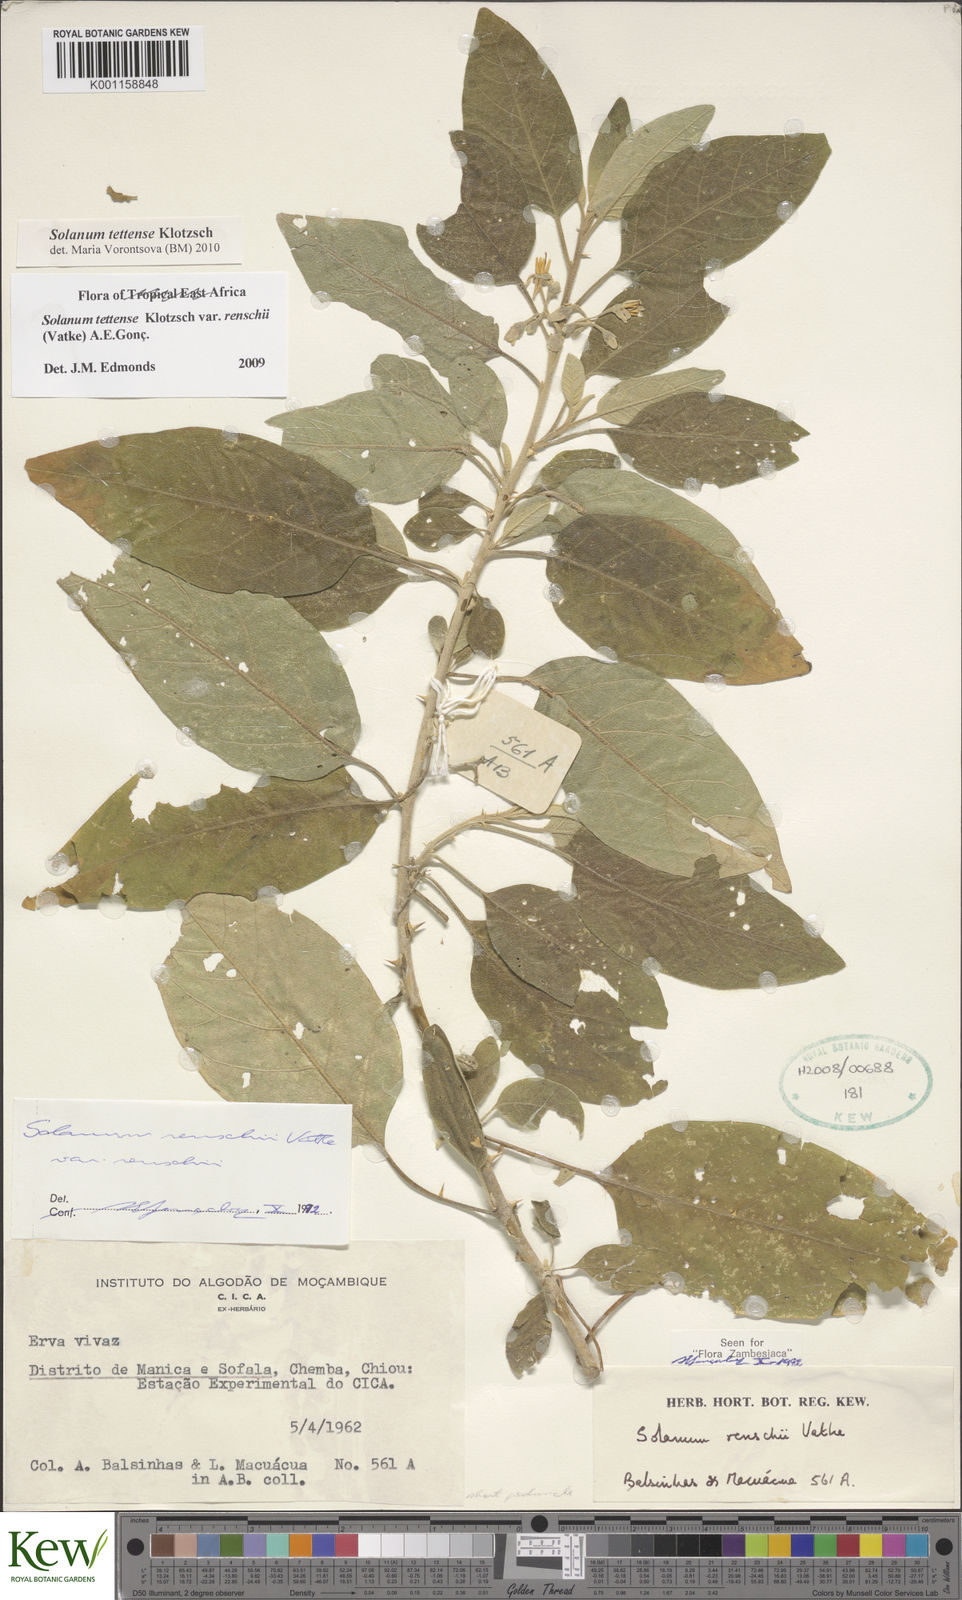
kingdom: Plantae
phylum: Tracheophyta
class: Magnoliopsida
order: Solanales
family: Solanaceae
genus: Solanum
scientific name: Solanum tettense
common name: Mozambique bitter apple
